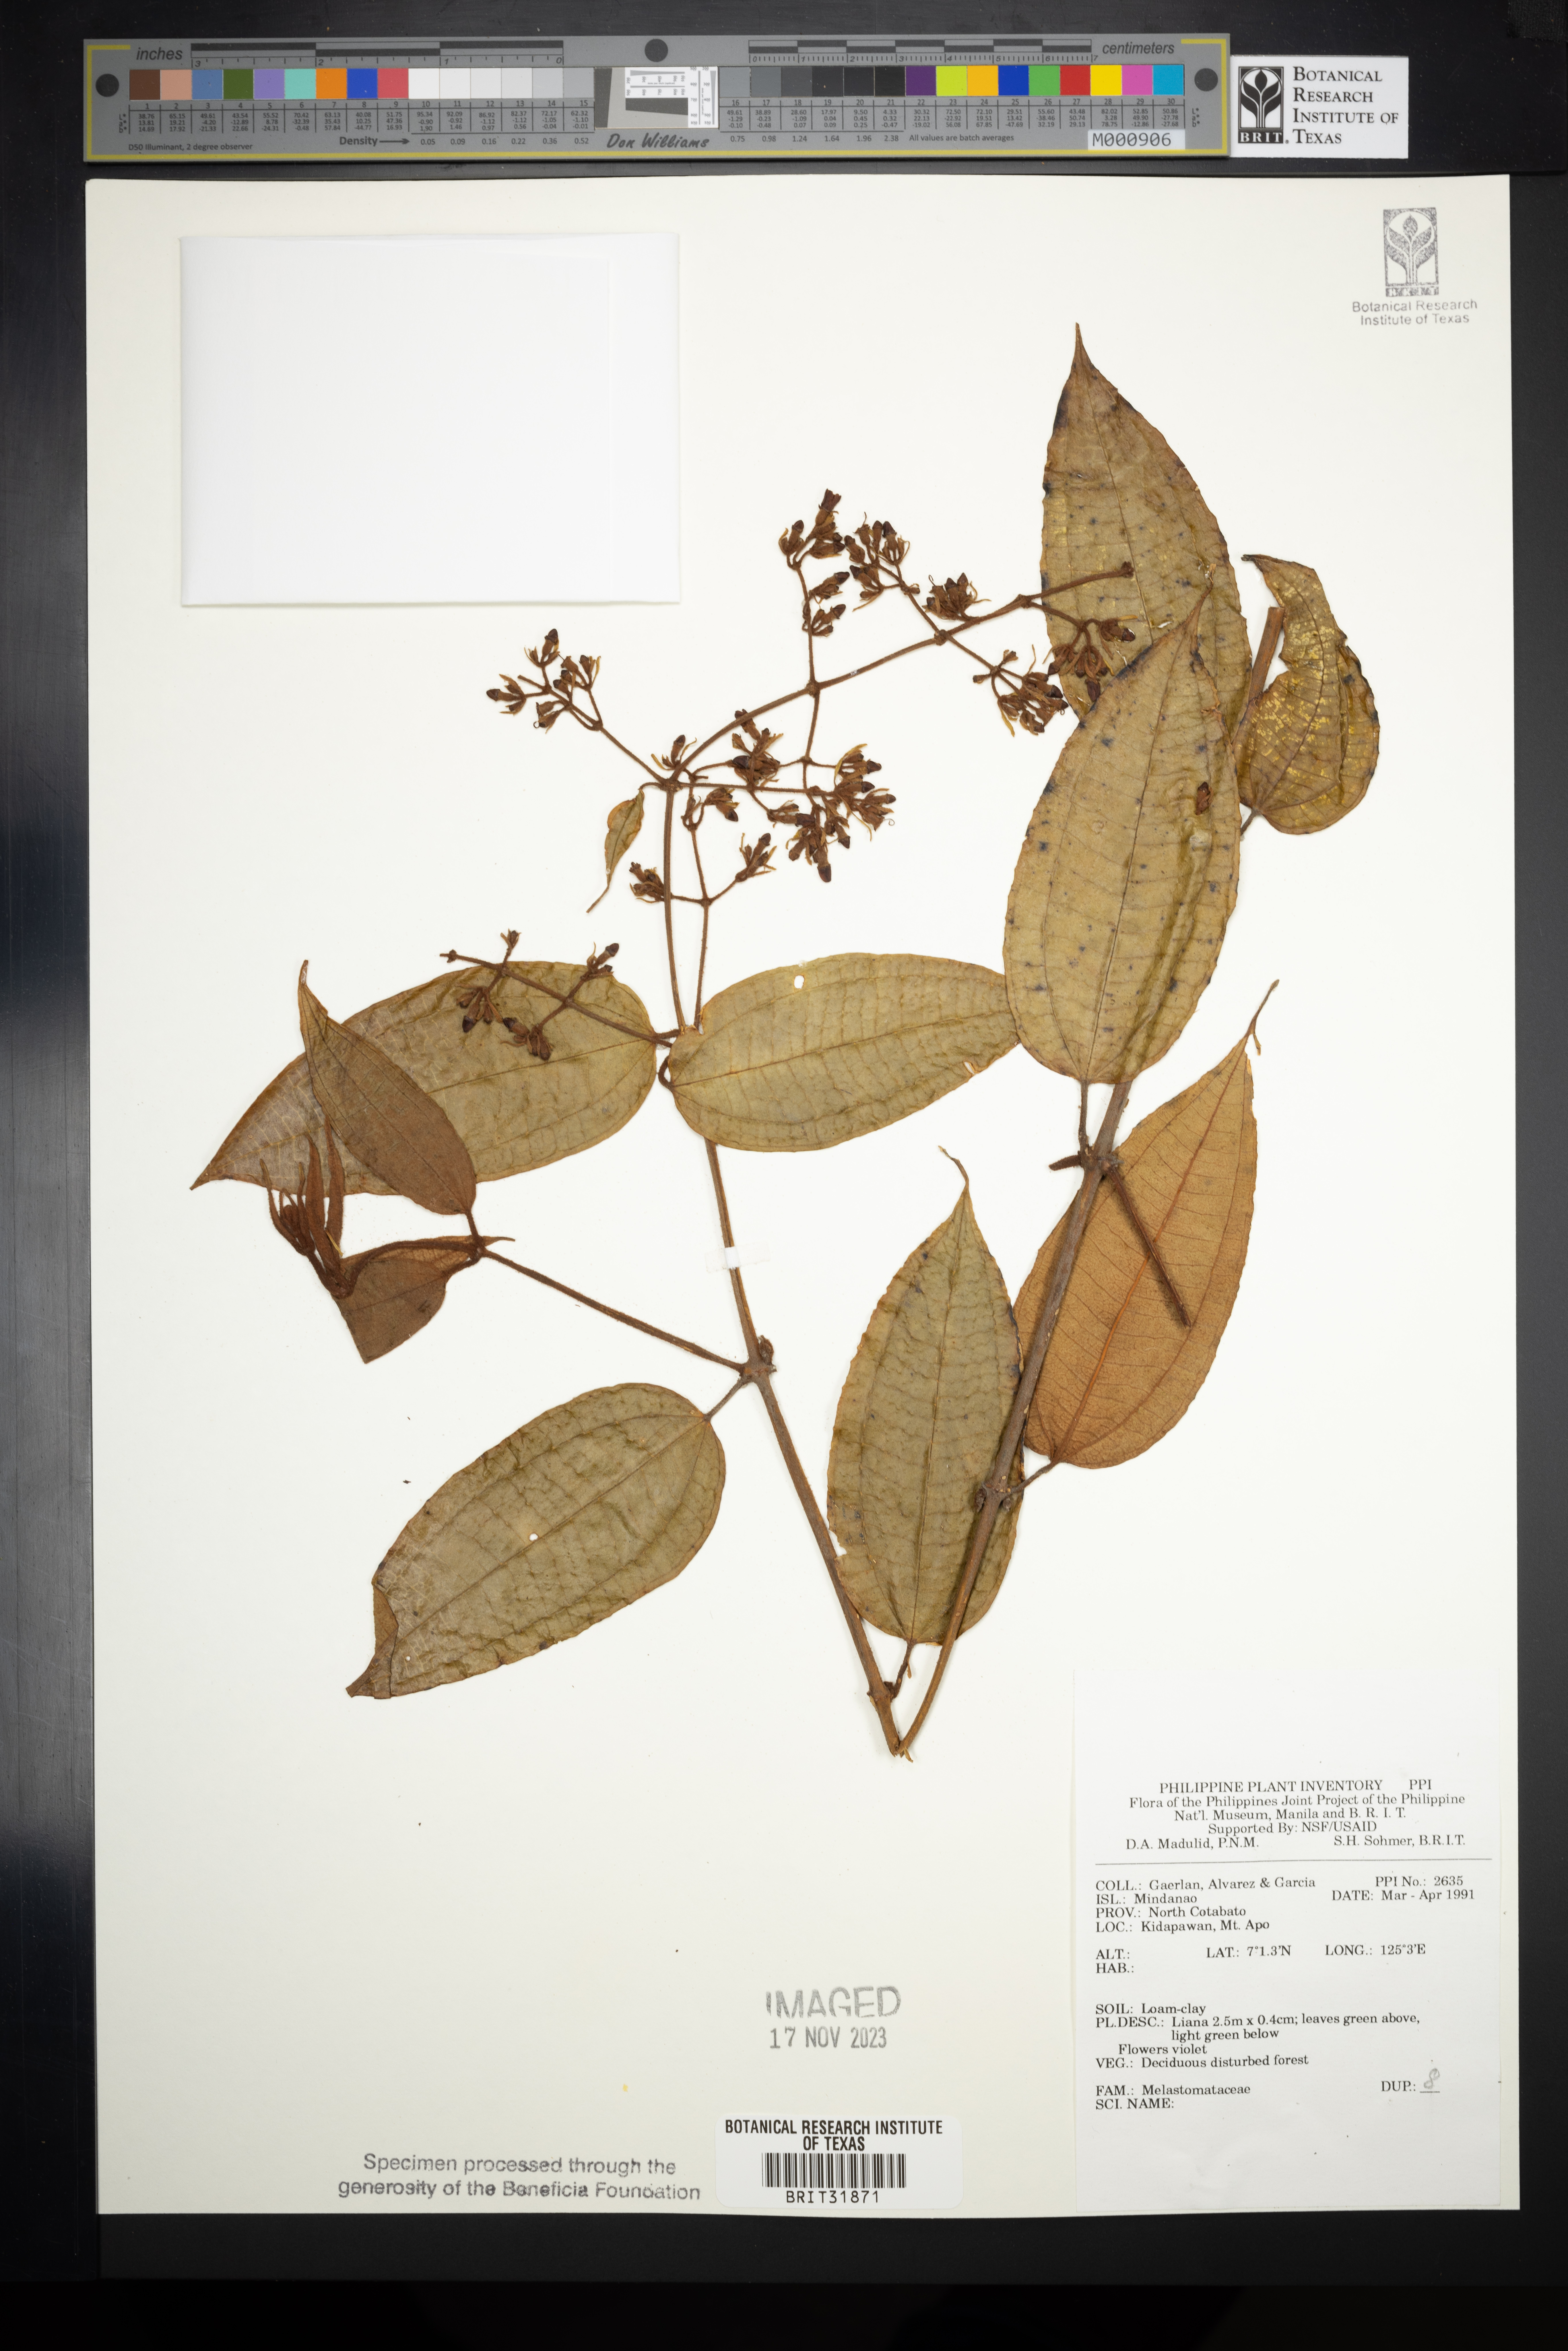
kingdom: Plantae
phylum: Tracheophyta
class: Magnoliopsida
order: Myrtales
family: Melastomataceae
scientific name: Melastomataceae
